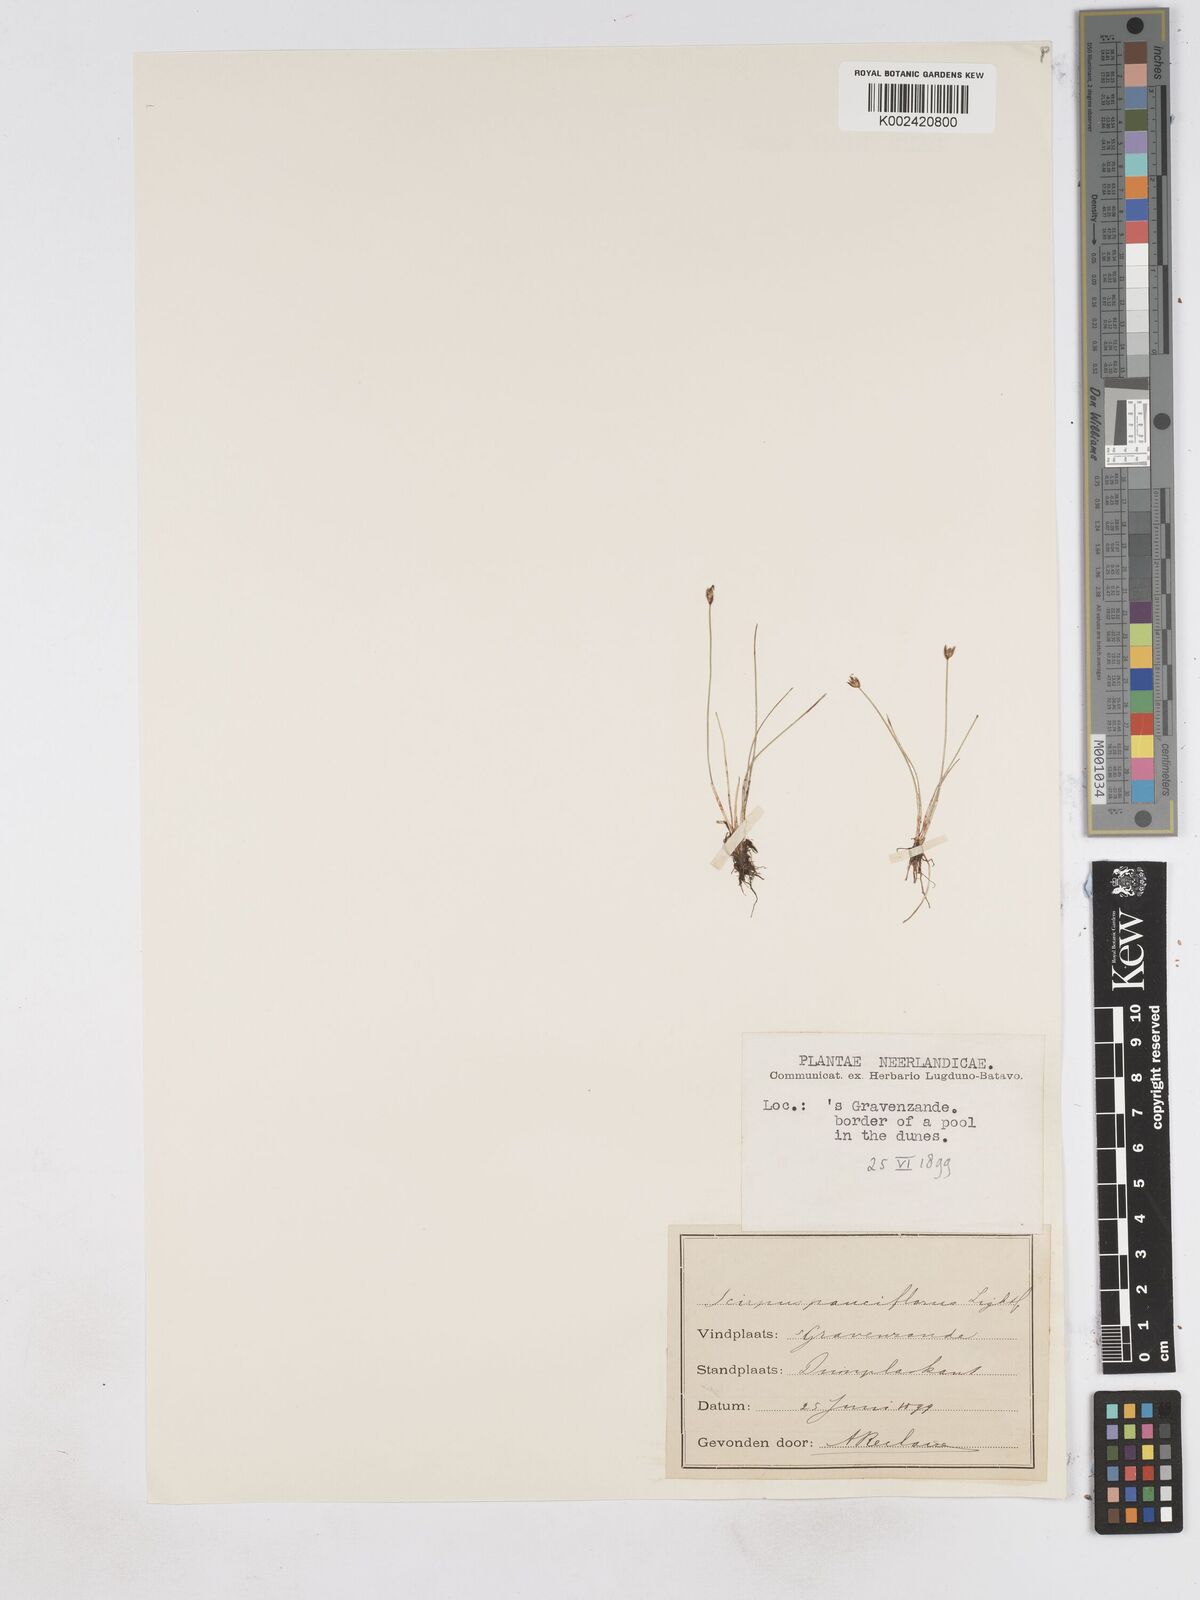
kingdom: Plantae
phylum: Tracheophyta
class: Liliopsida
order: Poales
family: Cyperaceae
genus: Eleocharis
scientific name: Eleocharis quinqueflora
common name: Few-flowered spike-rush
